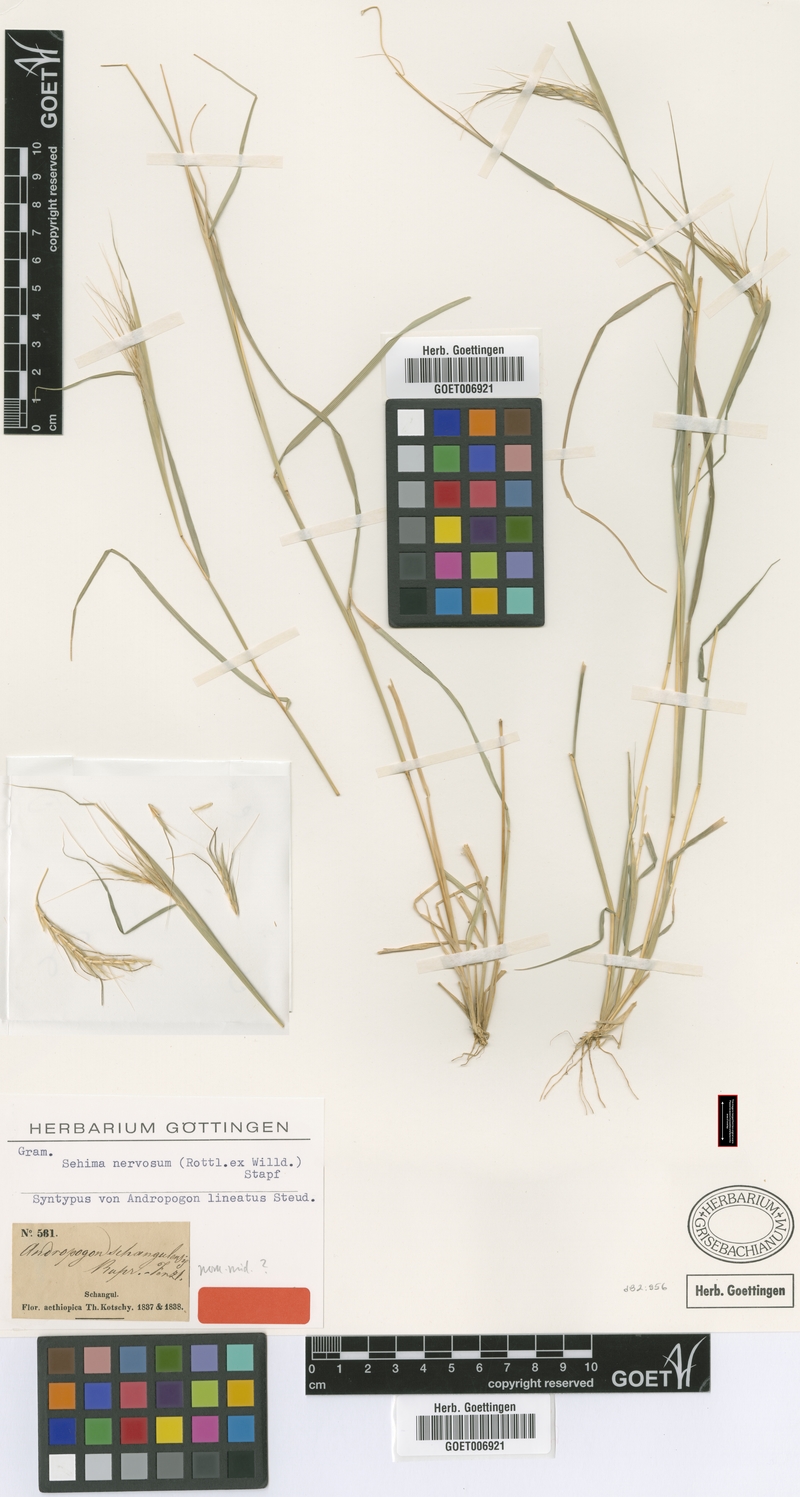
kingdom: Plantae
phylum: Tracheophyta
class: Liliopsida
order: Poales
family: Poaceae
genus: Sehima
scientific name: Sehima nervosa
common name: Rat-tail grass
